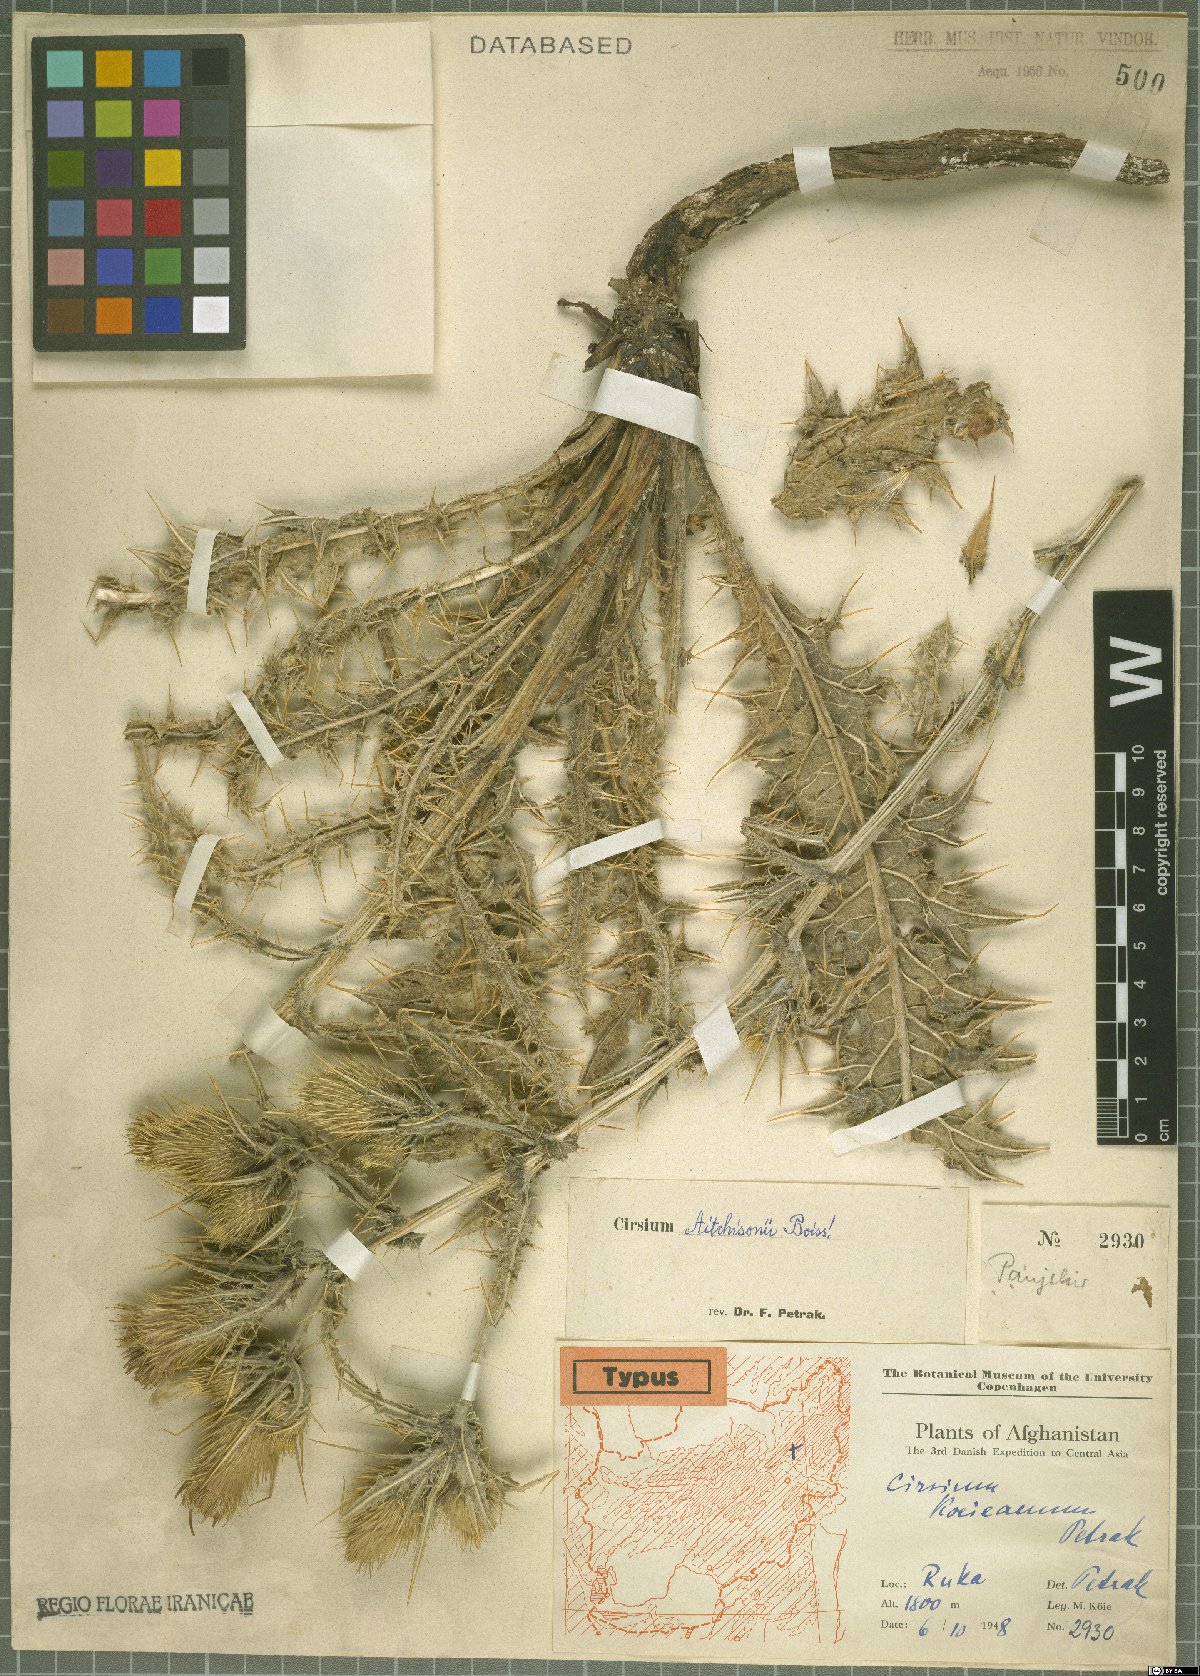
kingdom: Plantae
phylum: Tracheophyta
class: Magnoliopsida
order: Asterales
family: Asteraceae
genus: Lophiolepis
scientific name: Lophiolepis aitchisonii
